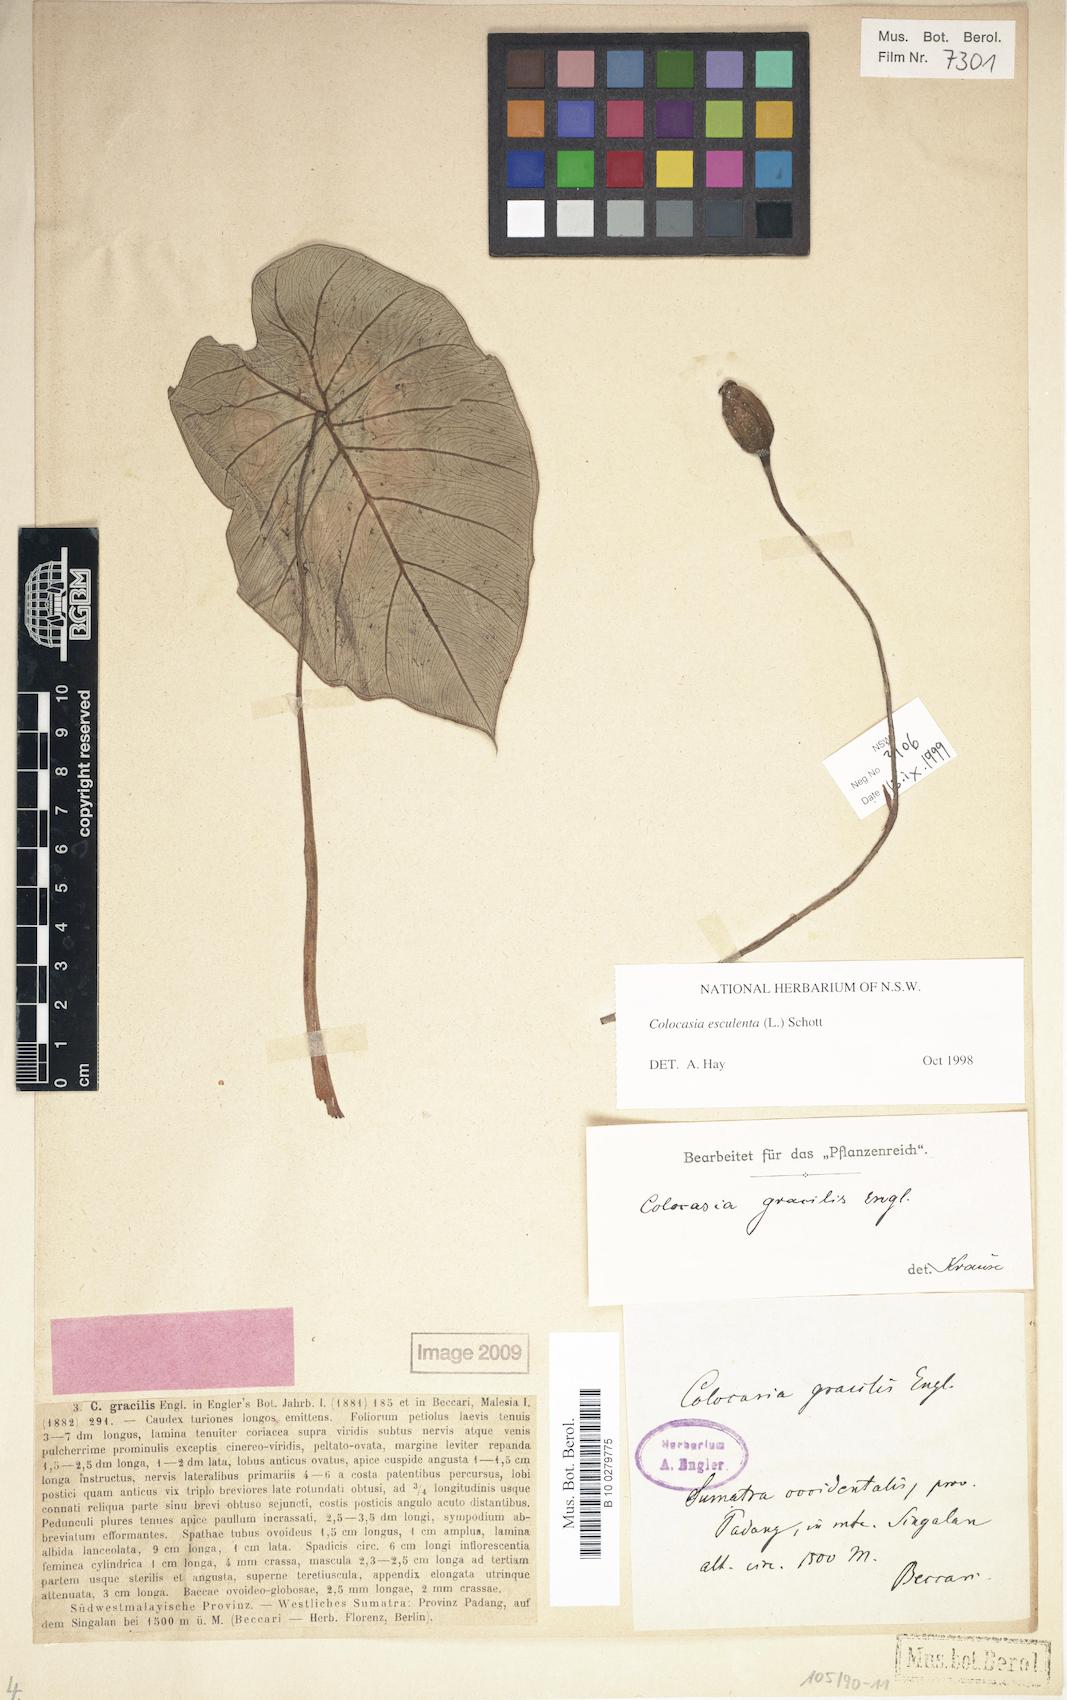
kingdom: Plantae
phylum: Tracheophyta
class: Liliopsida
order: Alismatales
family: Araceae
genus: Colocasia
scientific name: Colocasia esculenta
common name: Taro
